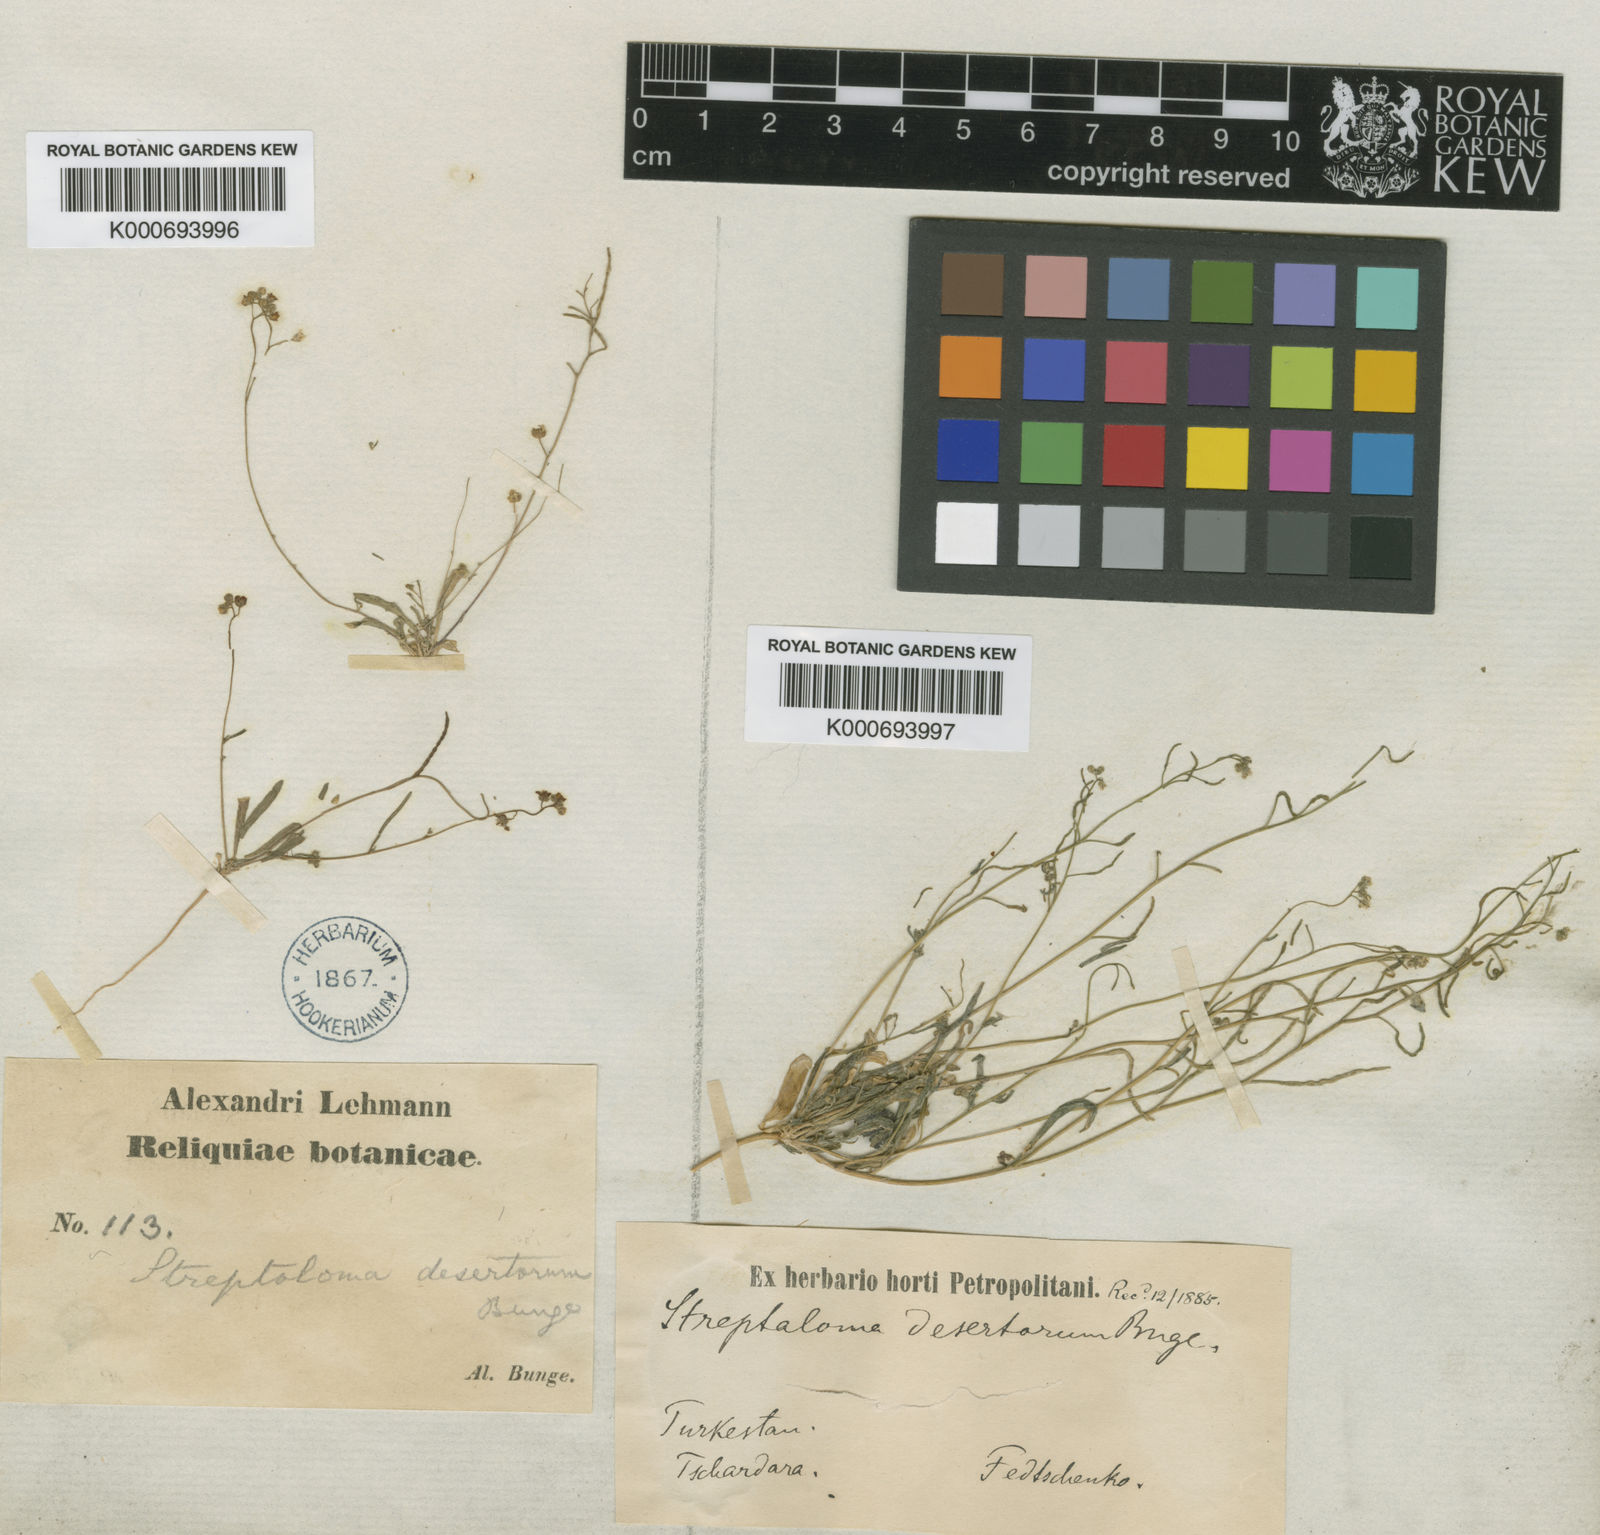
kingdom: Plantae
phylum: Tracheophyta
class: Magnoliopsida
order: Brassicales
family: Brassicaceae
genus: Streptoloma
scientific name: Streptoloma desertorum
